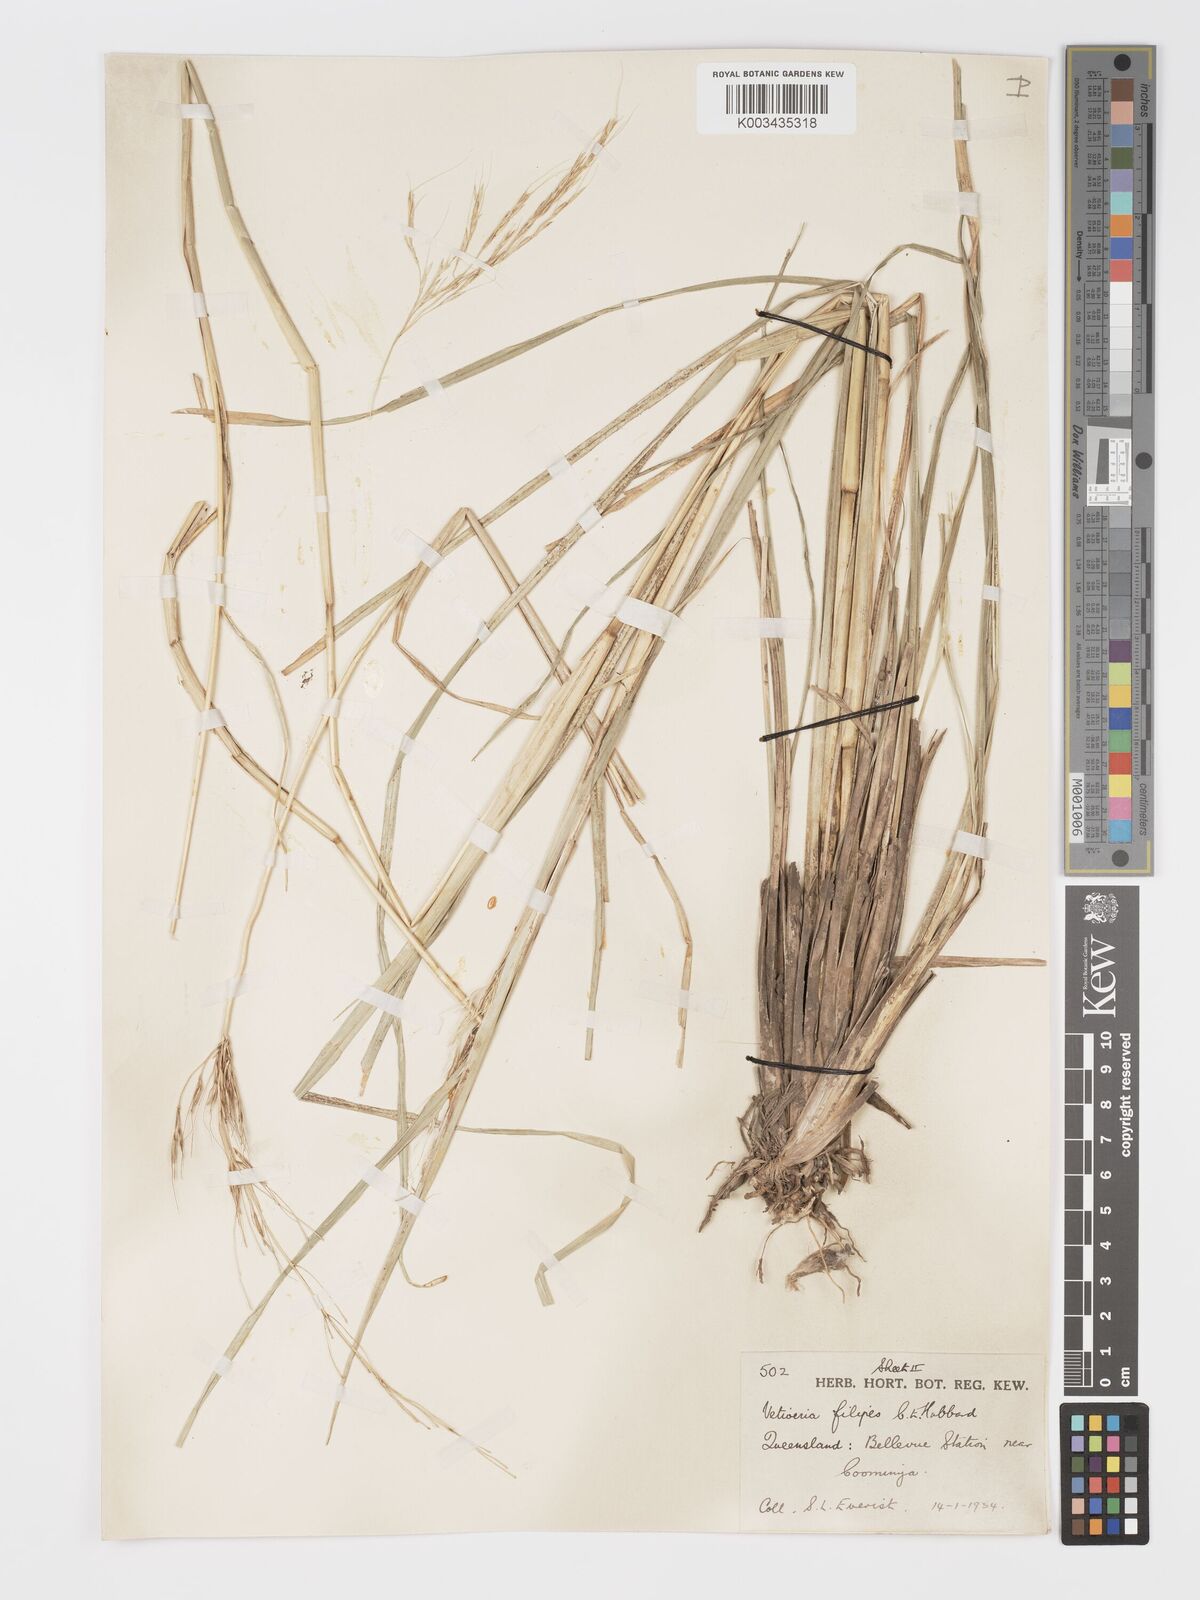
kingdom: Plantae
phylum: Tracheophyta
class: Liliopsida
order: Poales
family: Poaceae
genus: Chrysopogon
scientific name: Chrysopogon filipes
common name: Australian vetiver
